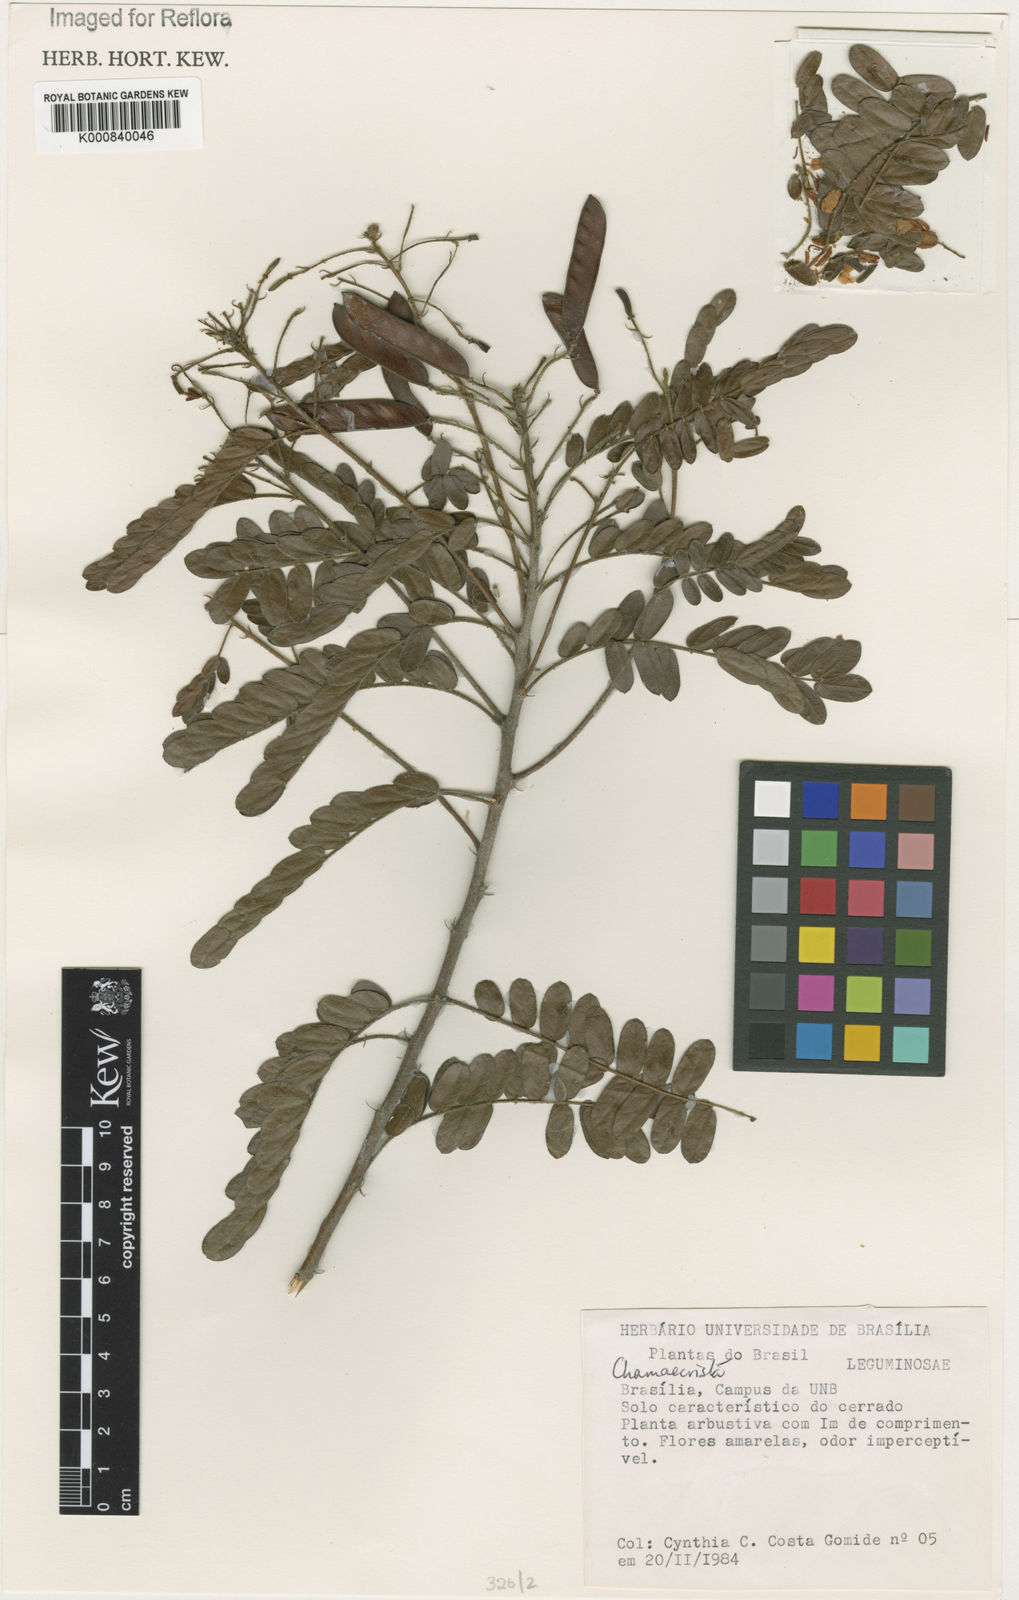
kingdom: Plantae
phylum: Tracheophyta
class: Magnoliopsida
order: Fabales
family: Fabaceae
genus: Chamaecrista
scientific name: Chamaecrista
